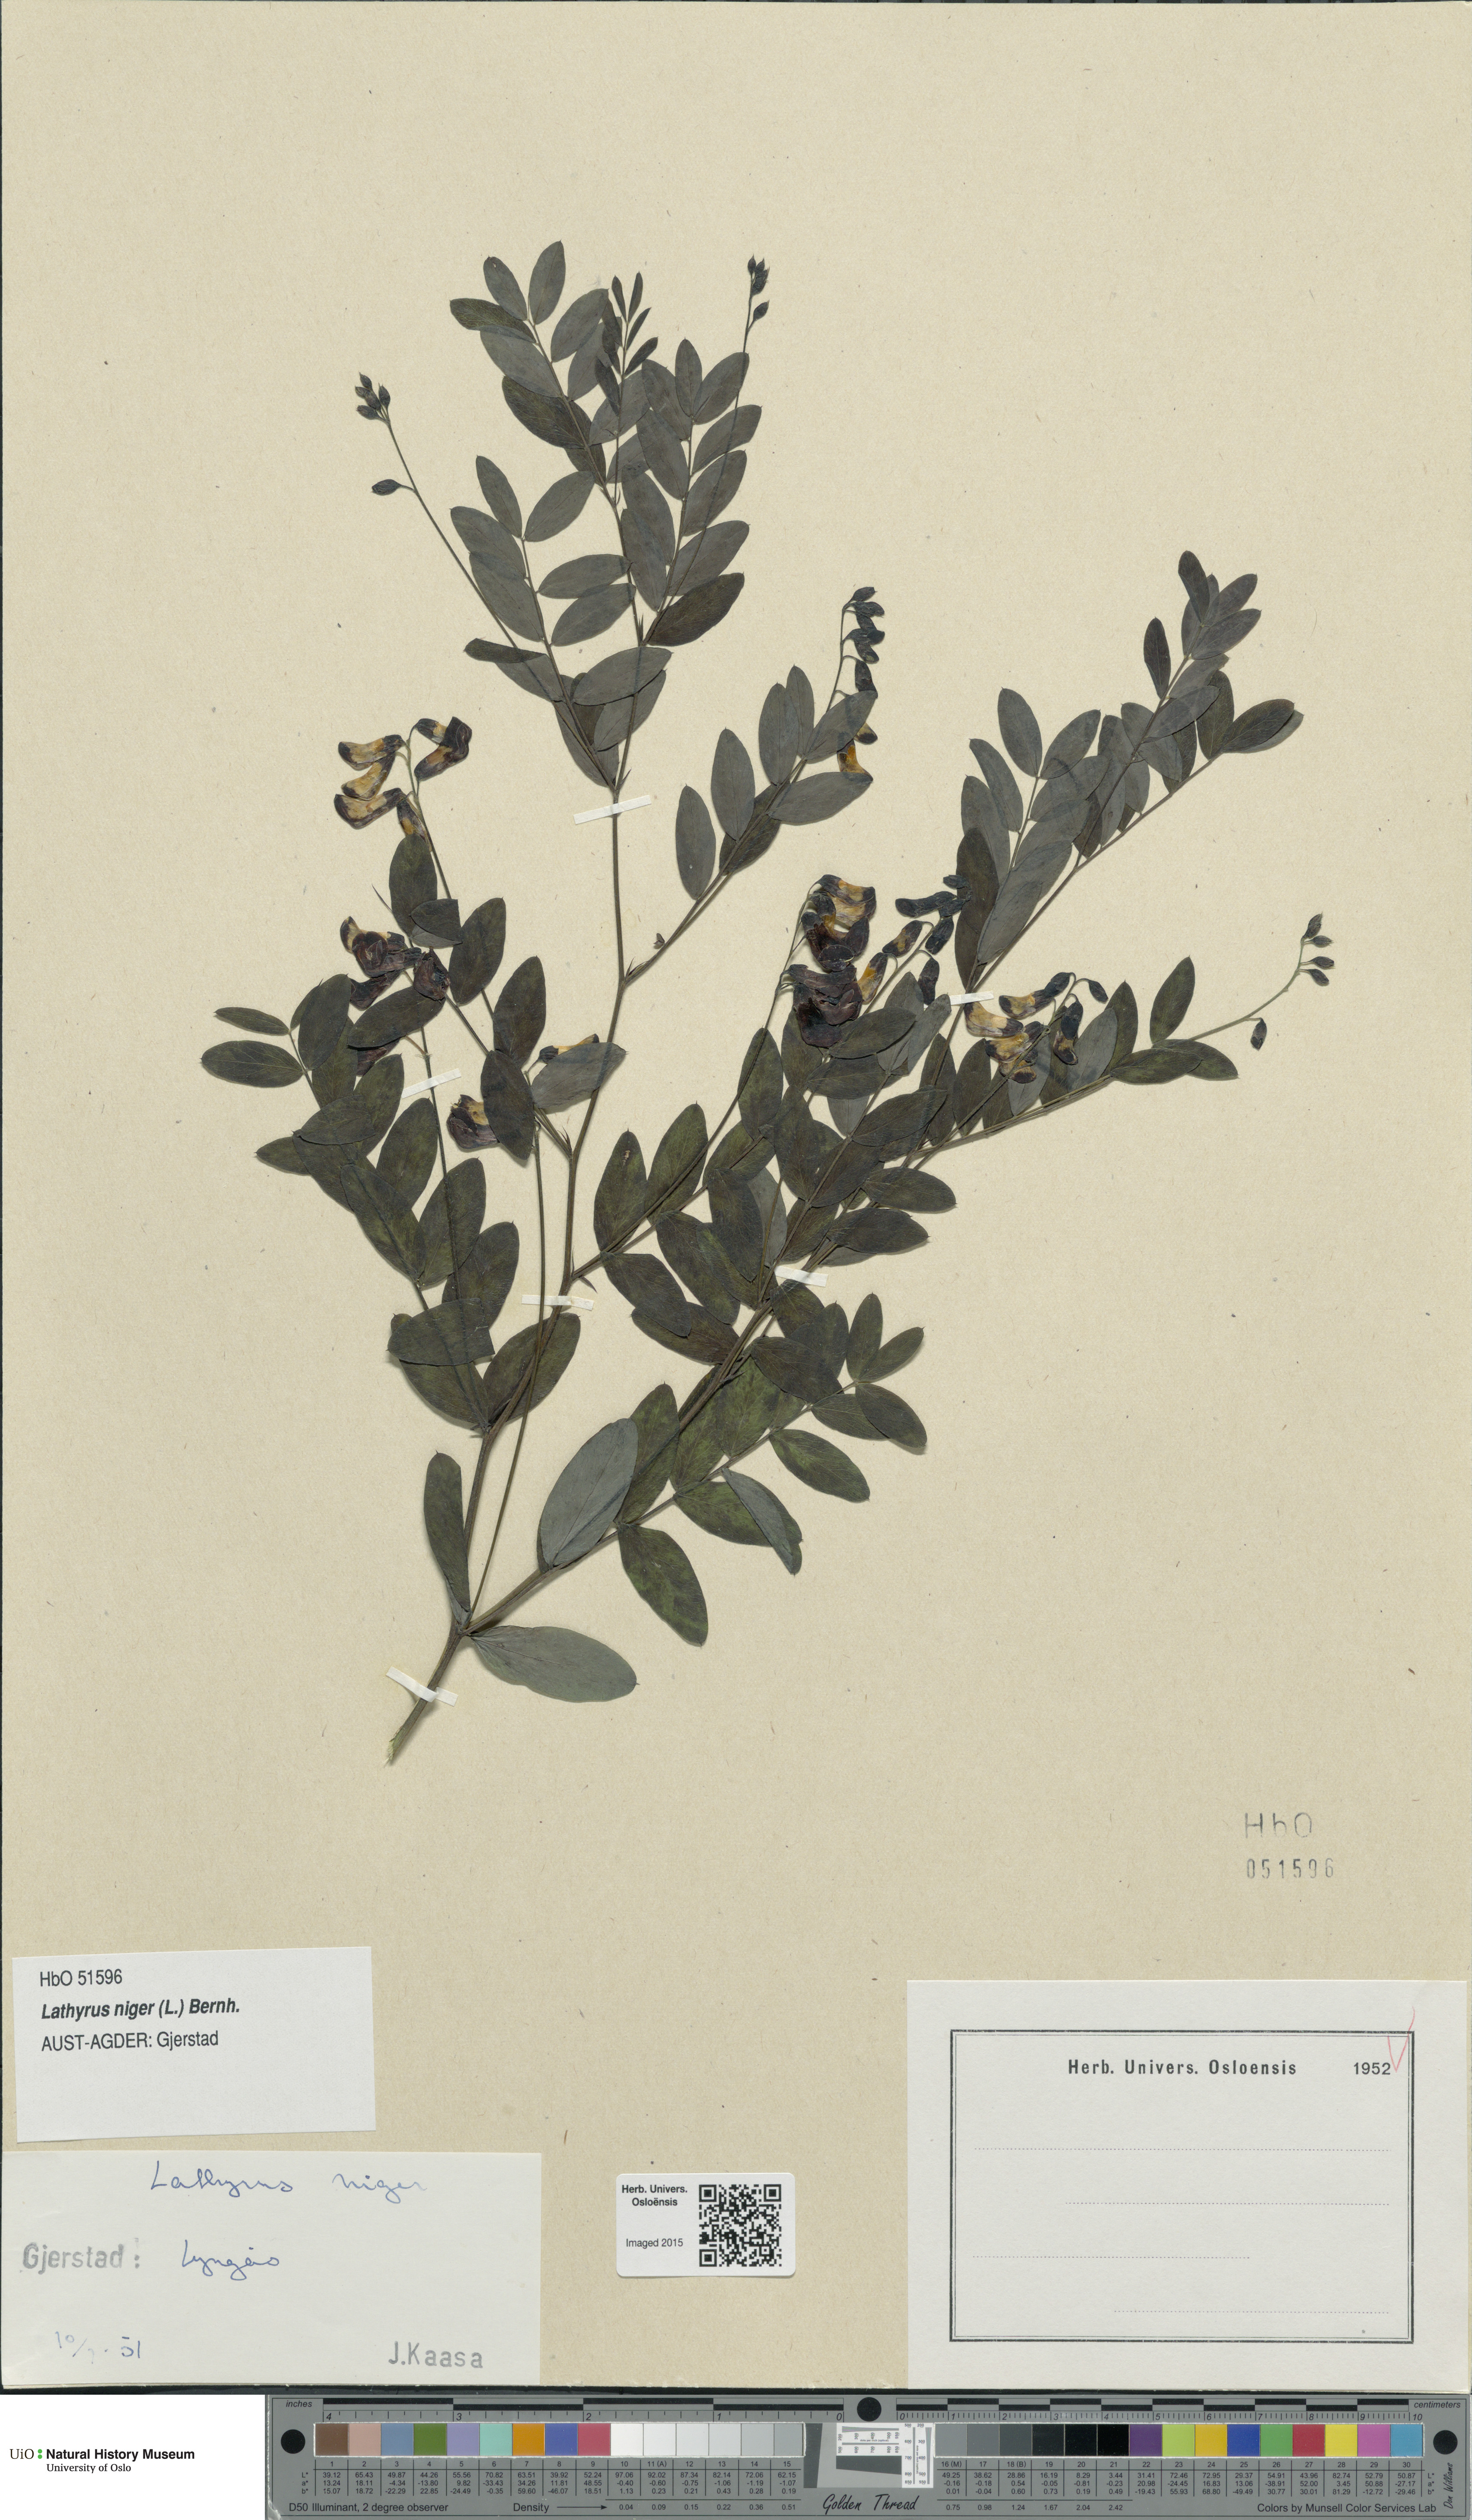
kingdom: Plantae
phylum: Tracheophyta
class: Magnoliopsida
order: Fabales
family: Fabaceae
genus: Lathyrus
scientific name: Lathyrus niger
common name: Black pea
